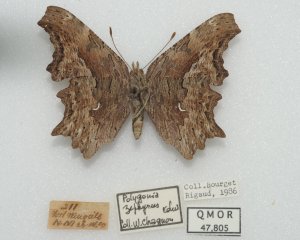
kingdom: Animalia
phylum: Arthropoda
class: Insecta
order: Lepidoptera
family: Nymphalidae
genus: Polygonia
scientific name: Polygonia gracilis
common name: Hoary Comma
